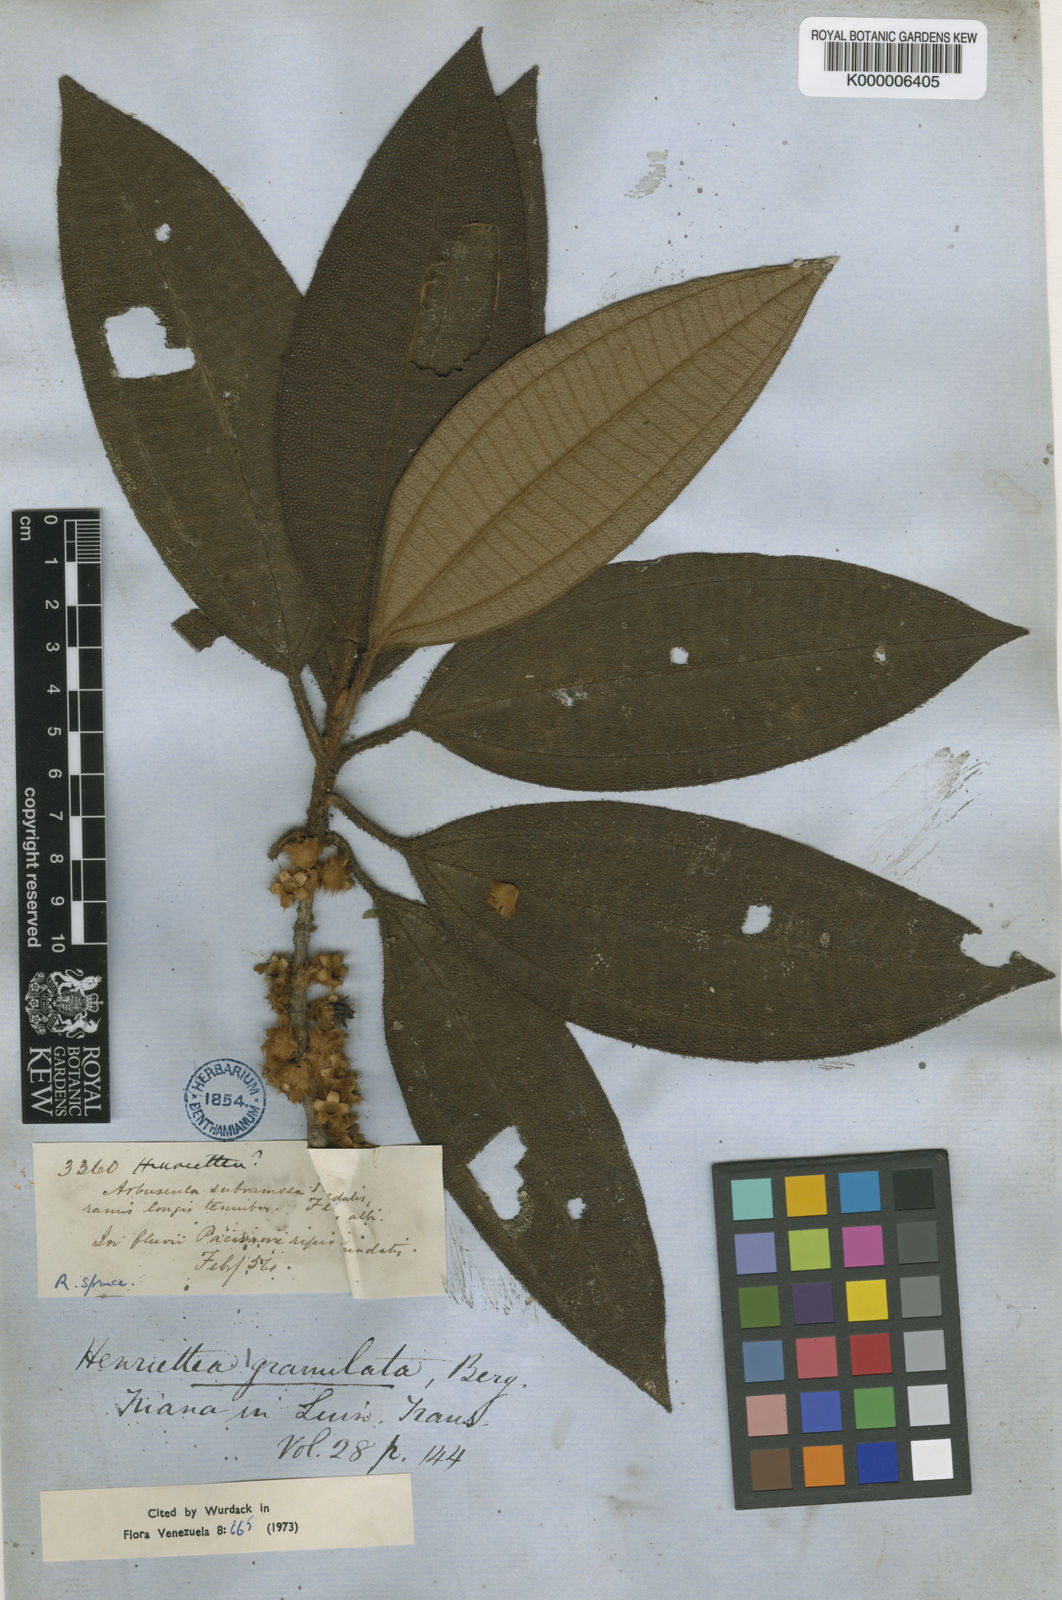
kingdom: Plantae
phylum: Tracheophyta
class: Magnoliopsida
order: Myrtales
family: Melastomataceae
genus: Henriettea
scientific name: Henriettea granulata
